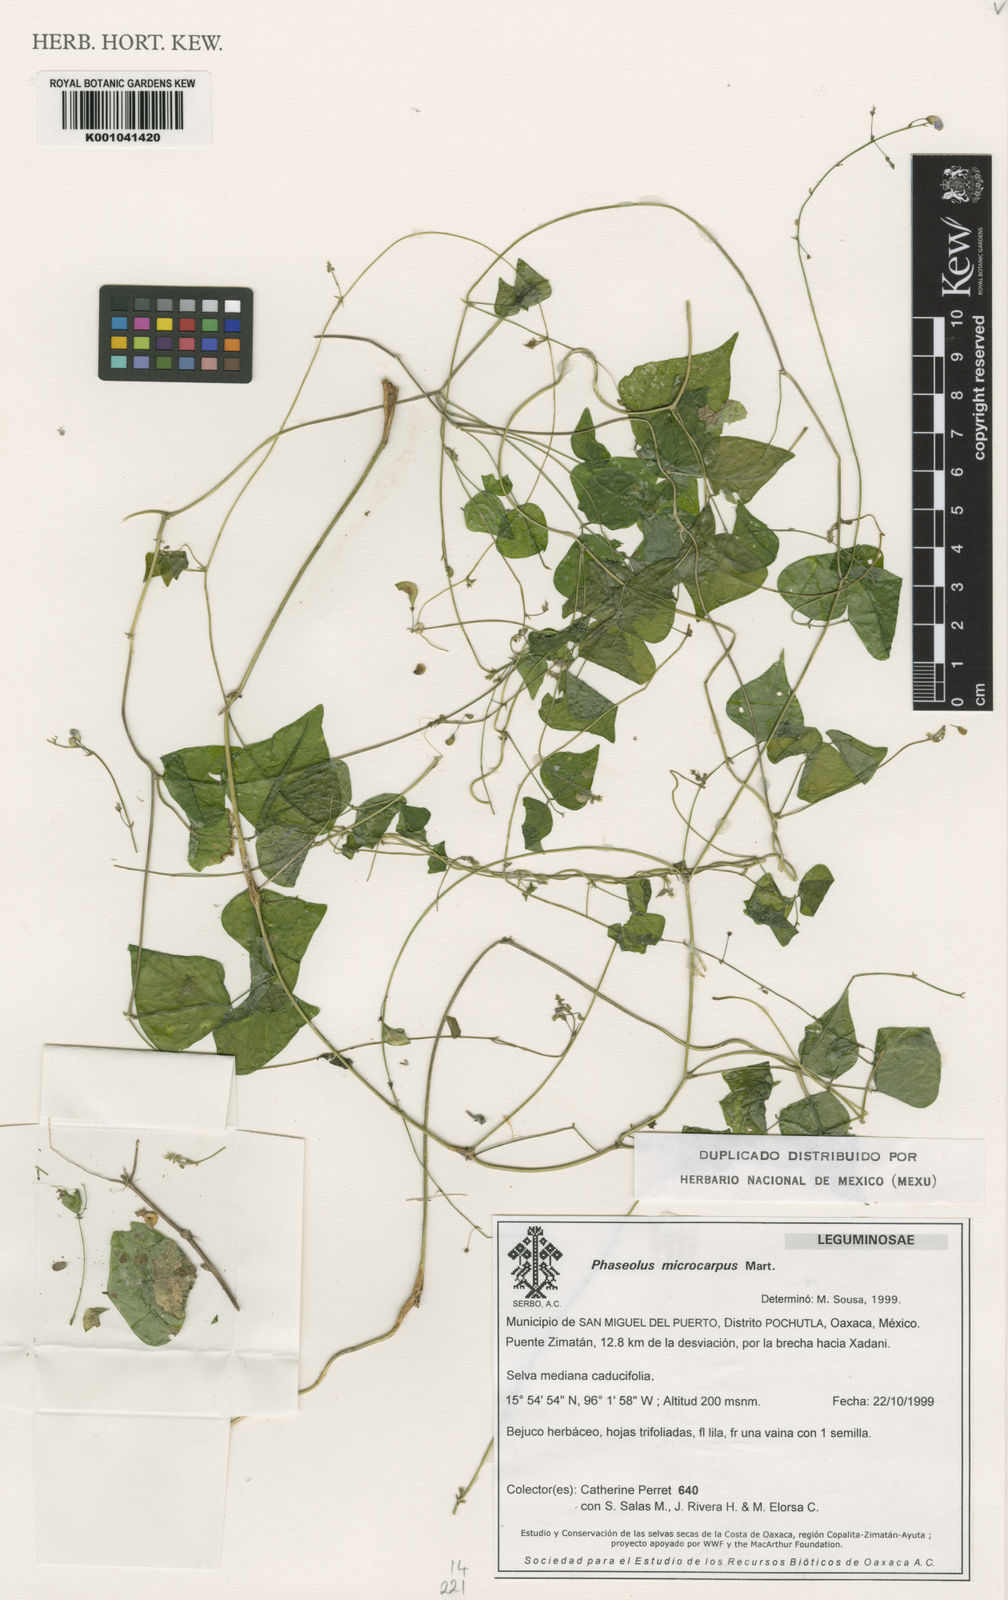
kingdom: Plantae
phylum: Tracheophyta
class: Magnoliopsida
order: Fabales
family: Fabaceae
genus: Phaseolus
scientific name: Phaseolus microcarpus
